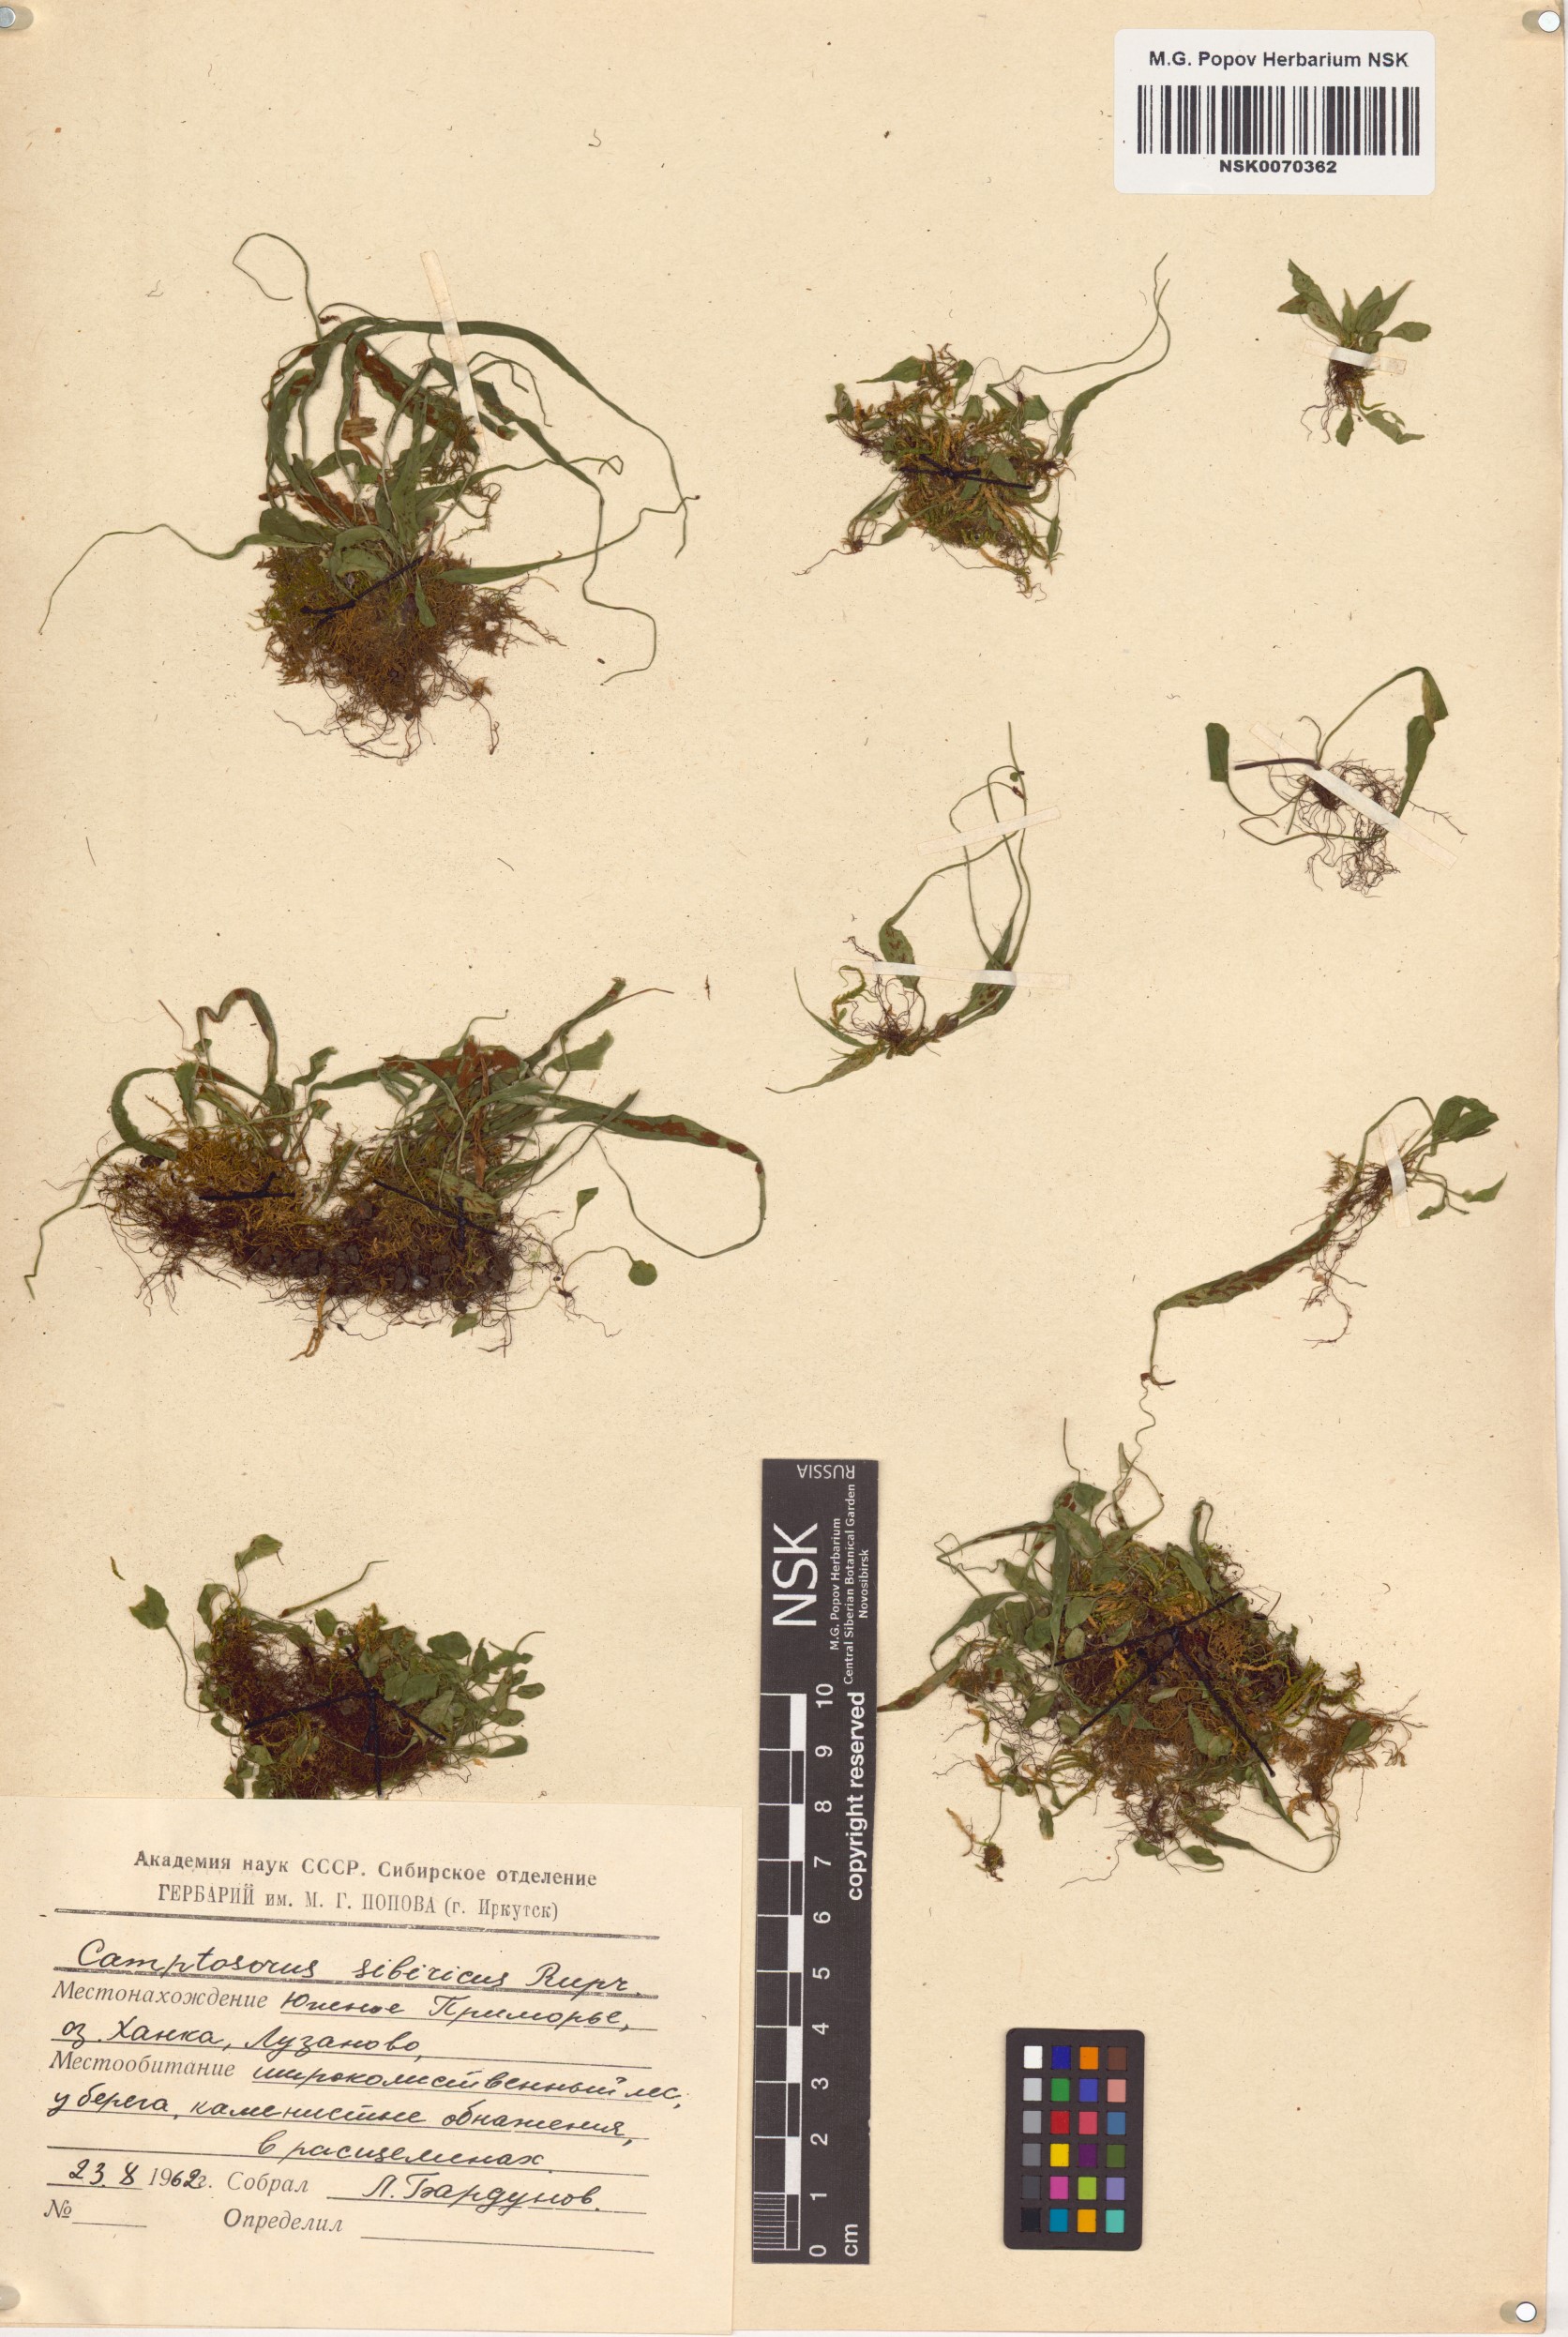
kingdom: Plantae
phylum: Tracheophyta
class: Polypodiopsida
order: Polypodiales
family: Aspleniaceae
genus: Asplenium
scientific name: Asplenium ruprechtii
